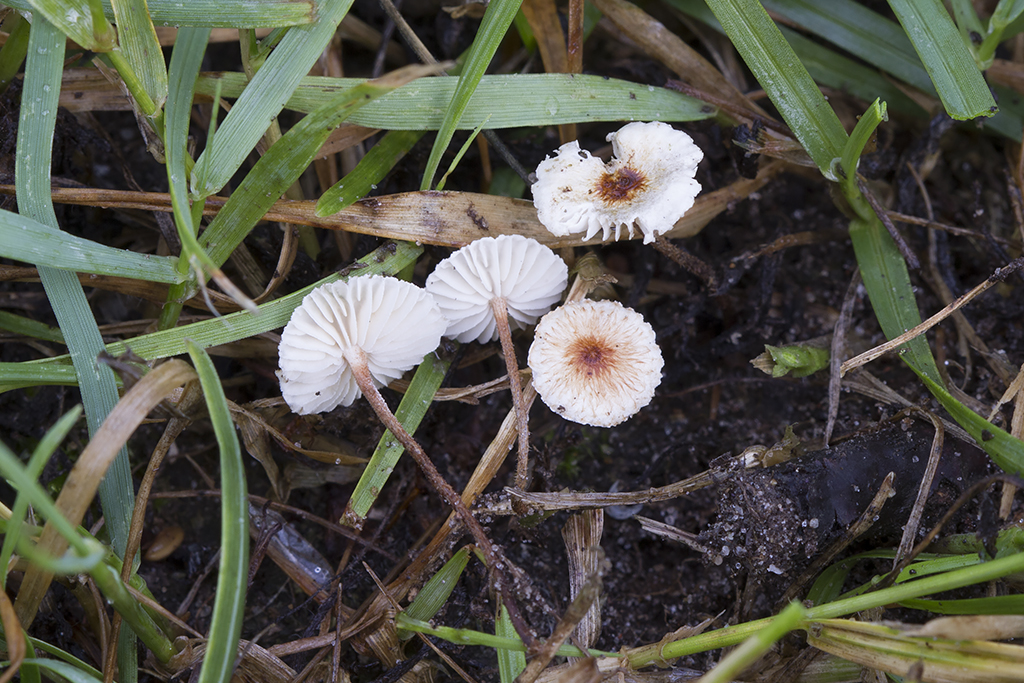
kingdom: Fungi
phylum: Basidiomycota
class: Agaricomycetes
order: Agaricales
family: Marasmiaceae
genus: Crinipellis
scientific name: Crinipellis scabella
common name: børstefod
